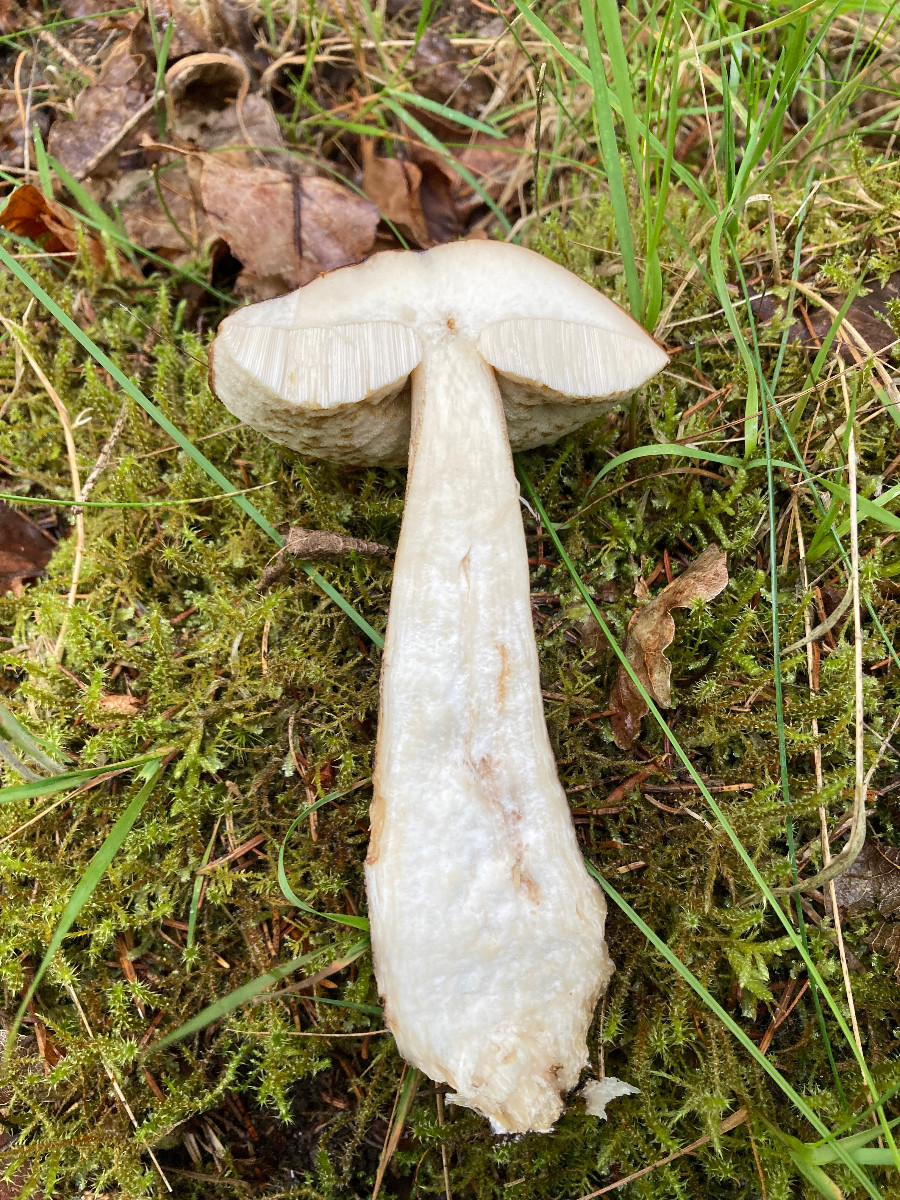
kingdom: Fungi
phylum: Basidiomycota
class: Agaricomycetes
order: Boletales
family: Boletaceae
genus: Leccinum
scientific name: Leccinum scabrum
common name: brun skælrørhat
